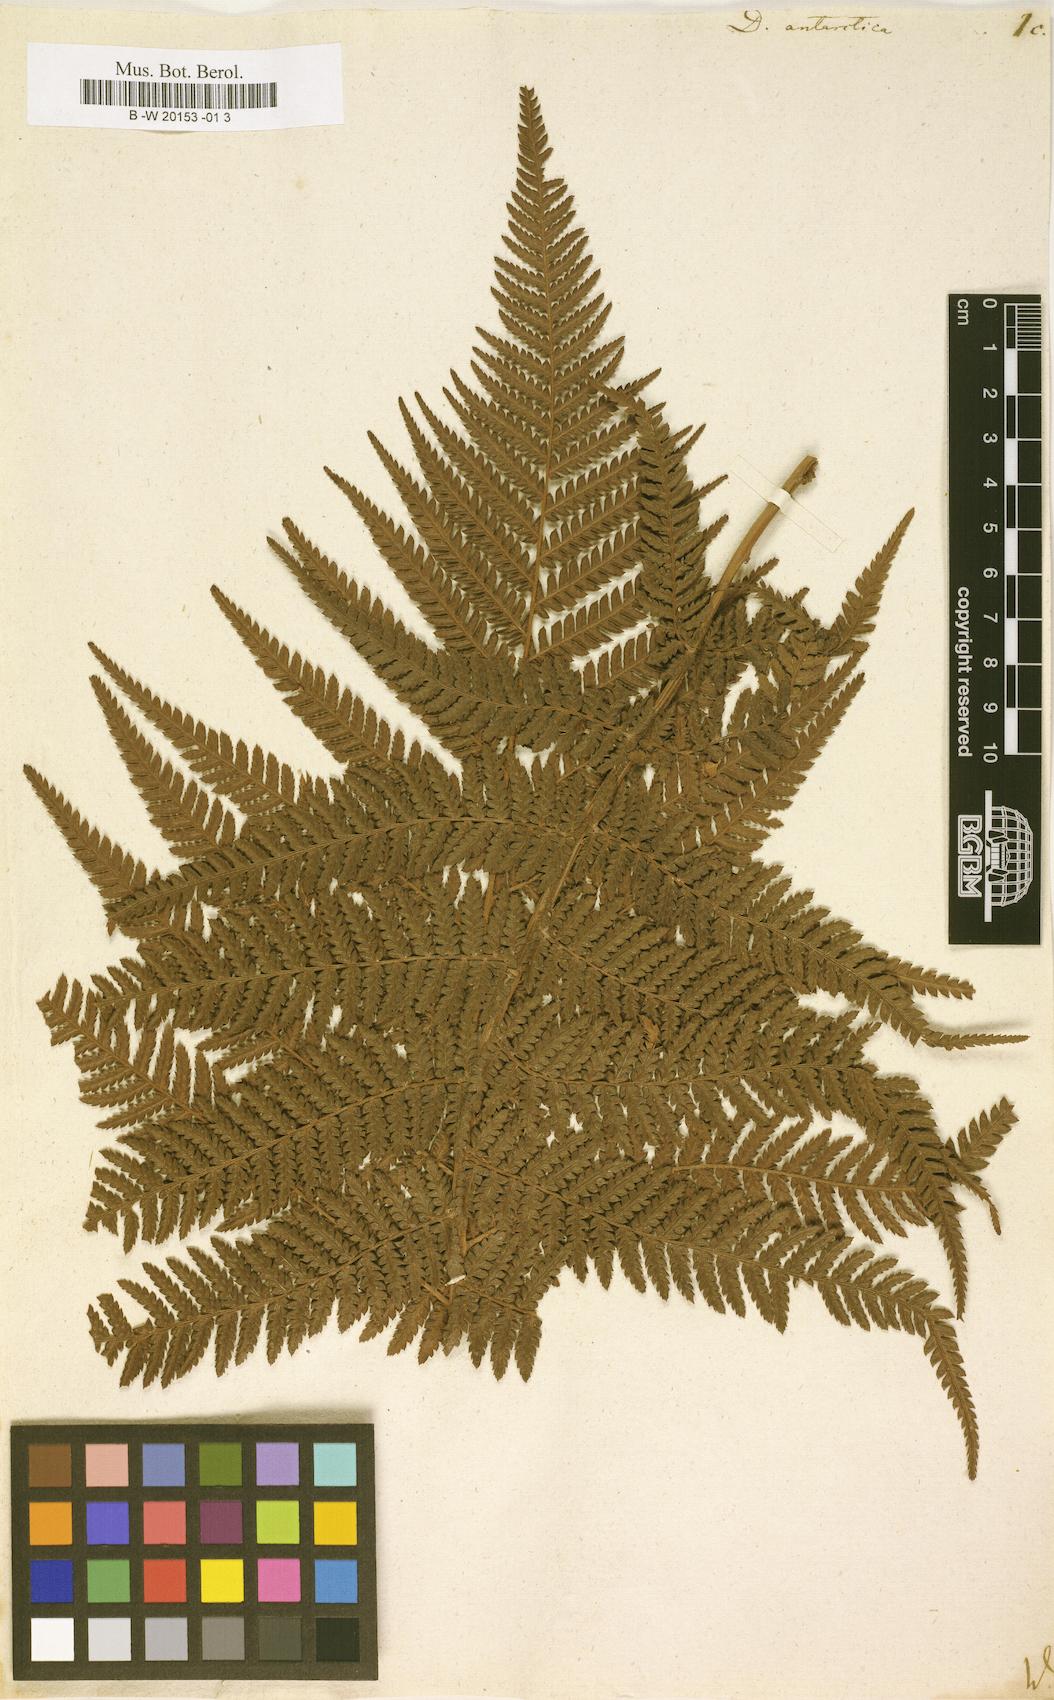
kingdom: Plantae
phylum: Tracheophyta
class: Polypodiopsida
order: Cyatheales
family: Dicksoniaceae
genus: Dicksonia
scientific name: Dicksonia antarctica
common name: Australian treefern
